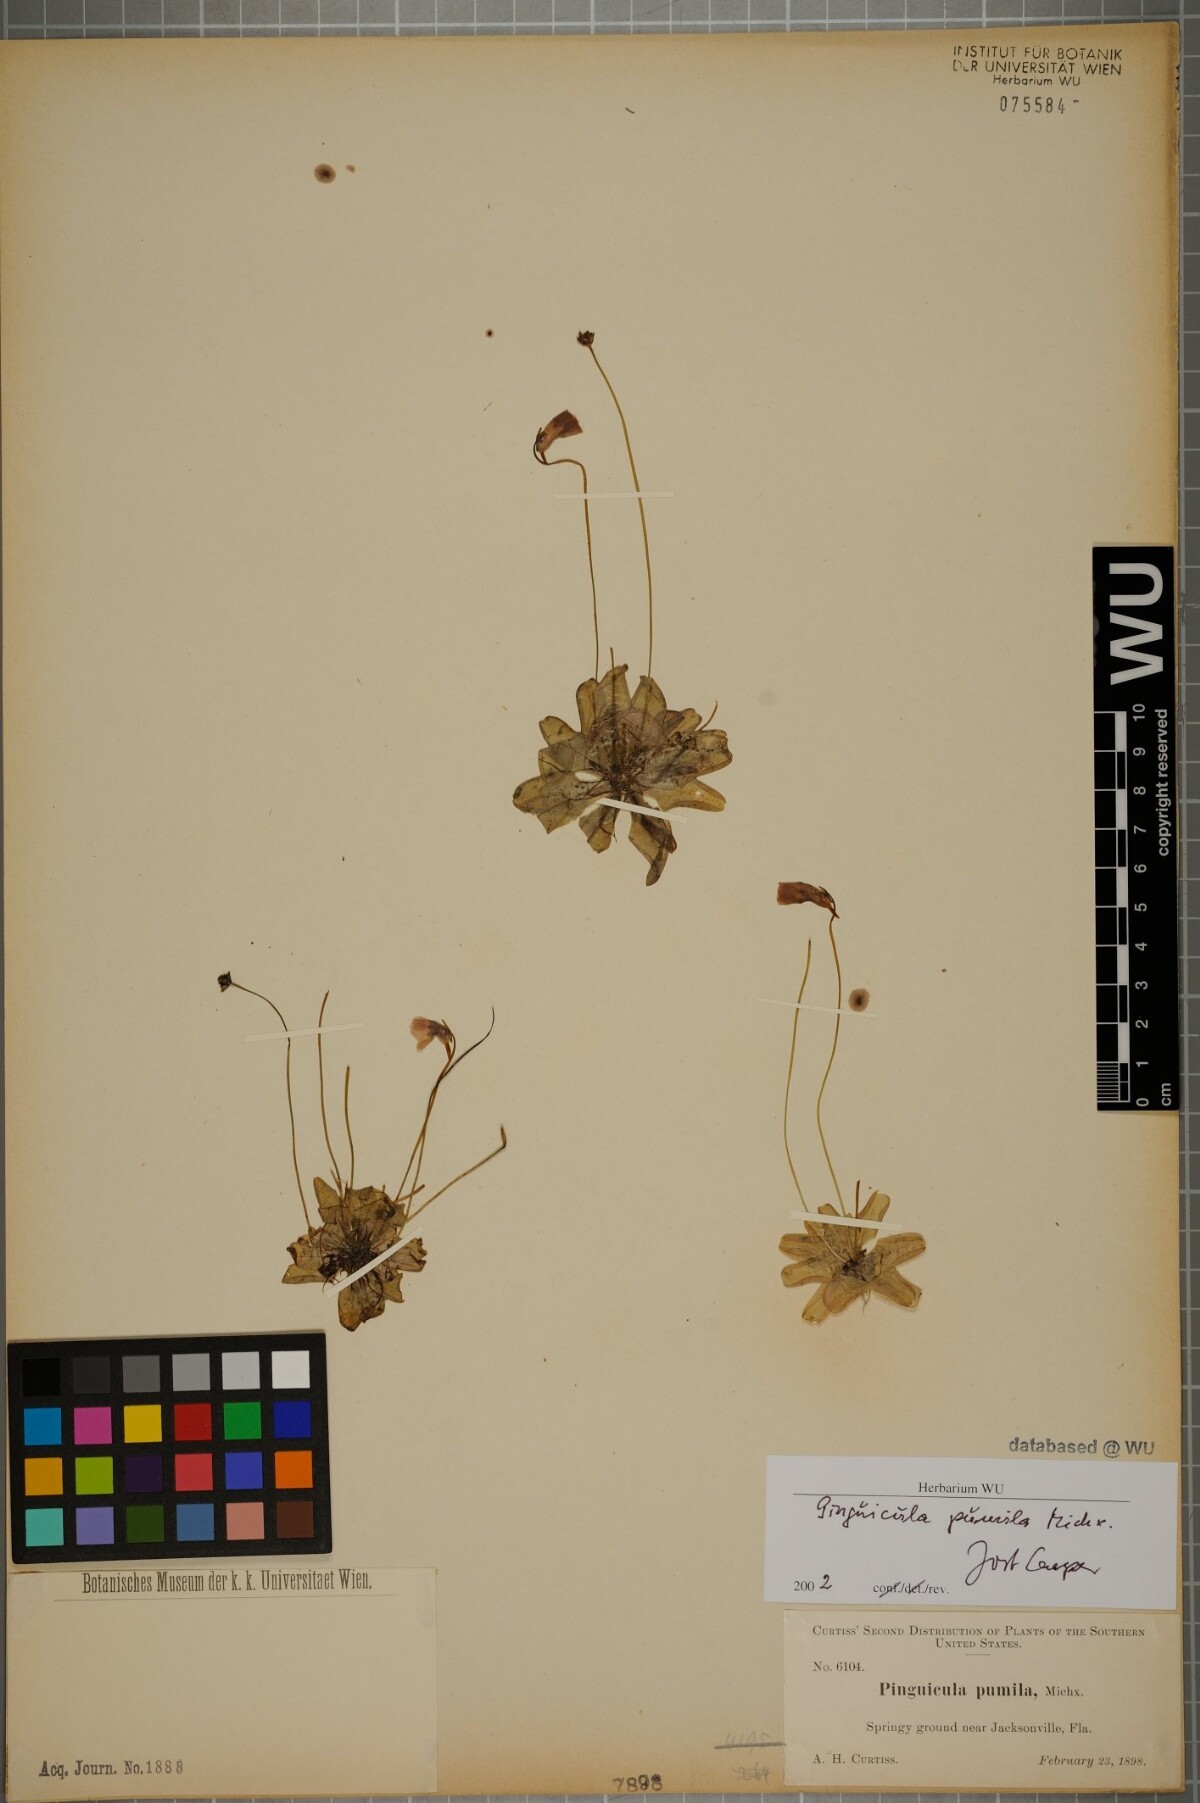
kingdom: Plantae
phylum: Tracheophyta
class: Magnoliopsida
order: Lamiales
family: Lentibulariaceae
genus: Pinguicula
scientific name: Pinguicula pumila
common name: Small butterwort
